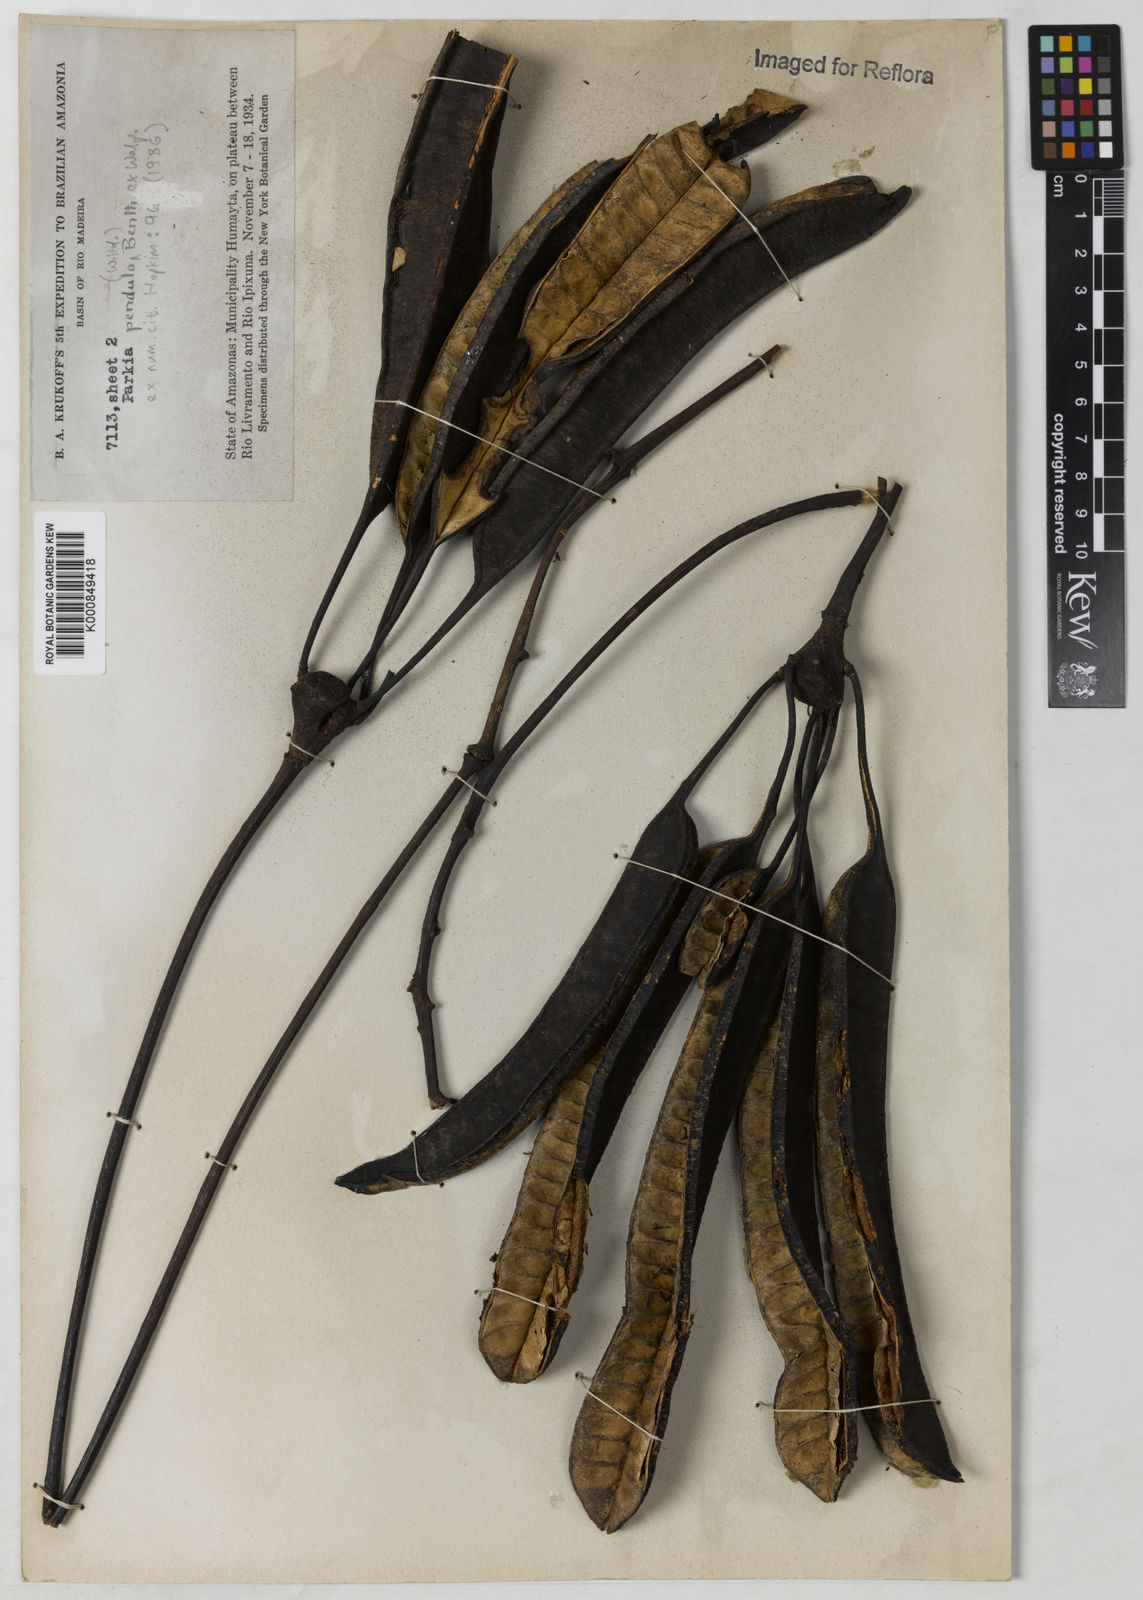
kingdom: Plantae
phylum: Tracheophyta
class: Magnoliopsida
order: Fabales
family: Fabaceae
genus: Parkia
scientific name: Parkia pendula
